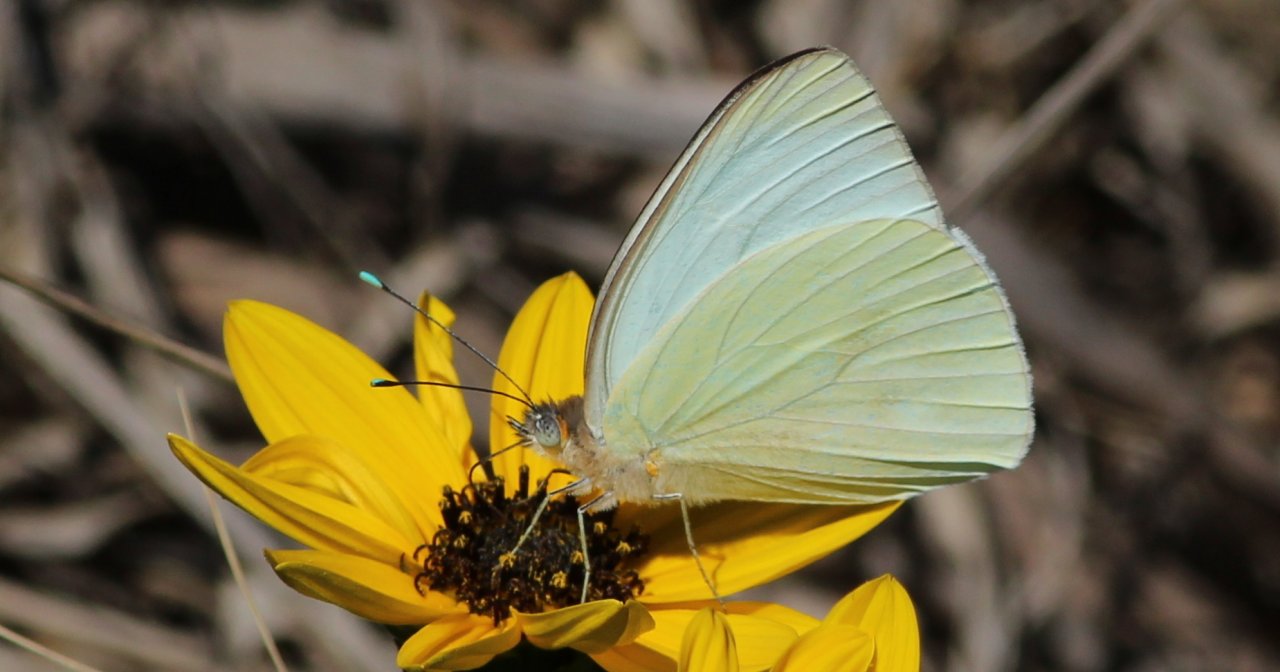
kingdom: Animalia
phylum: Arthropoda
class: Insecta
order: Lepidoptera
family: Pieridae
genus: Ascia
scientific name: Ascia monuste
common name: Great Southern White
